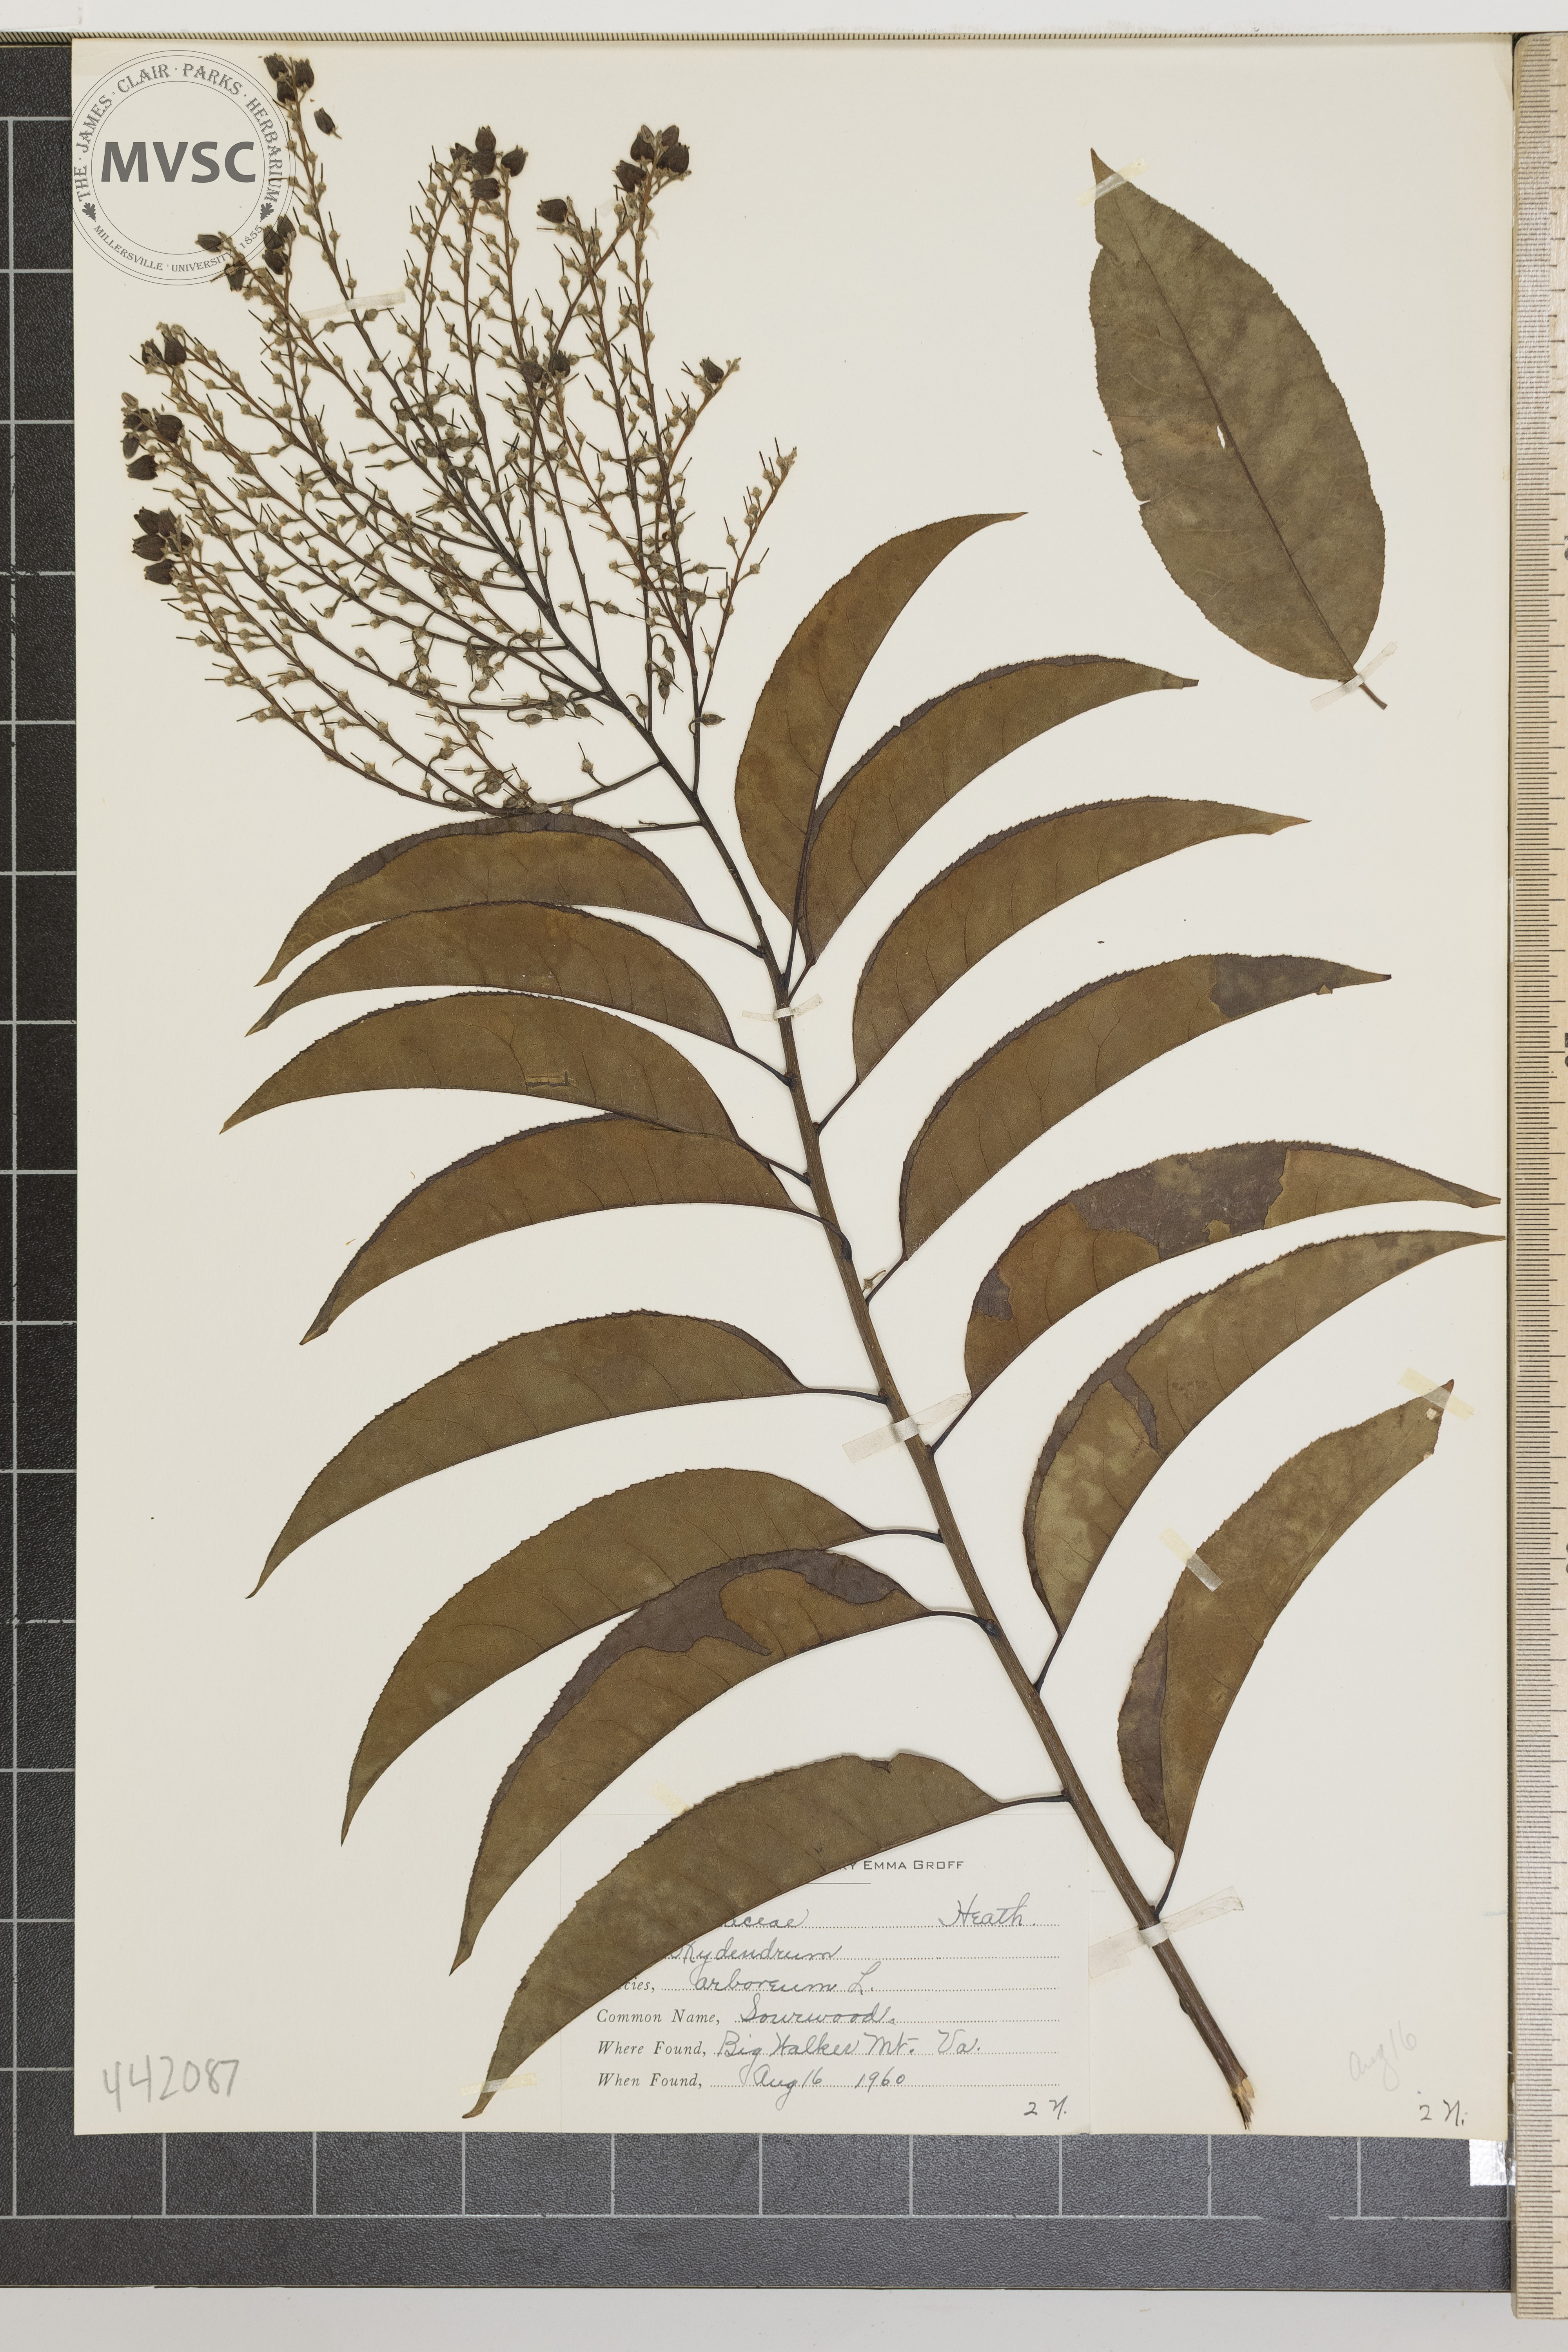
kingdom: Plantae
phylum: Tracheophyta
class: Magnoliopsida
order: Ericales
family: Ericaceae
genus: Oxydendrum
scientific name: Oxydendrum arboreum
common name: Sourwood
